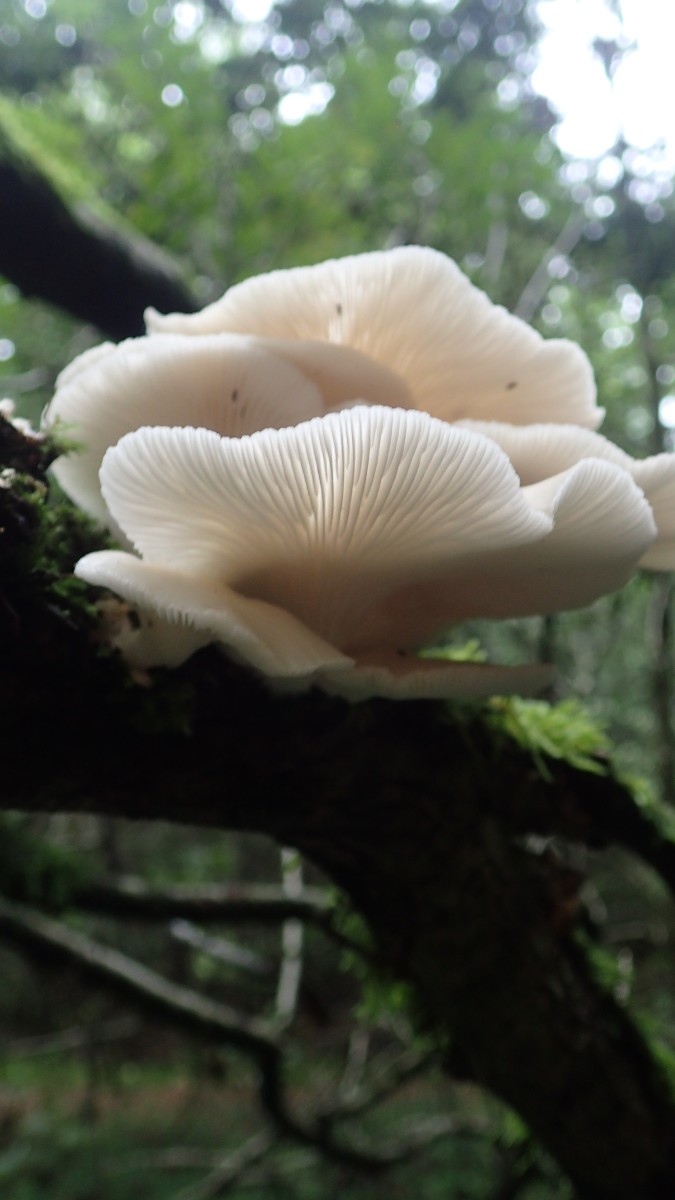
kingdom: Fungi
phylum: Basidiomycota
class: Agaricomycetes
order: Agaricales
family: Pleurotaceae
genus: Pleurotus
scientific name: Pleurotus pulmonarius
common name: sommer-østershat
